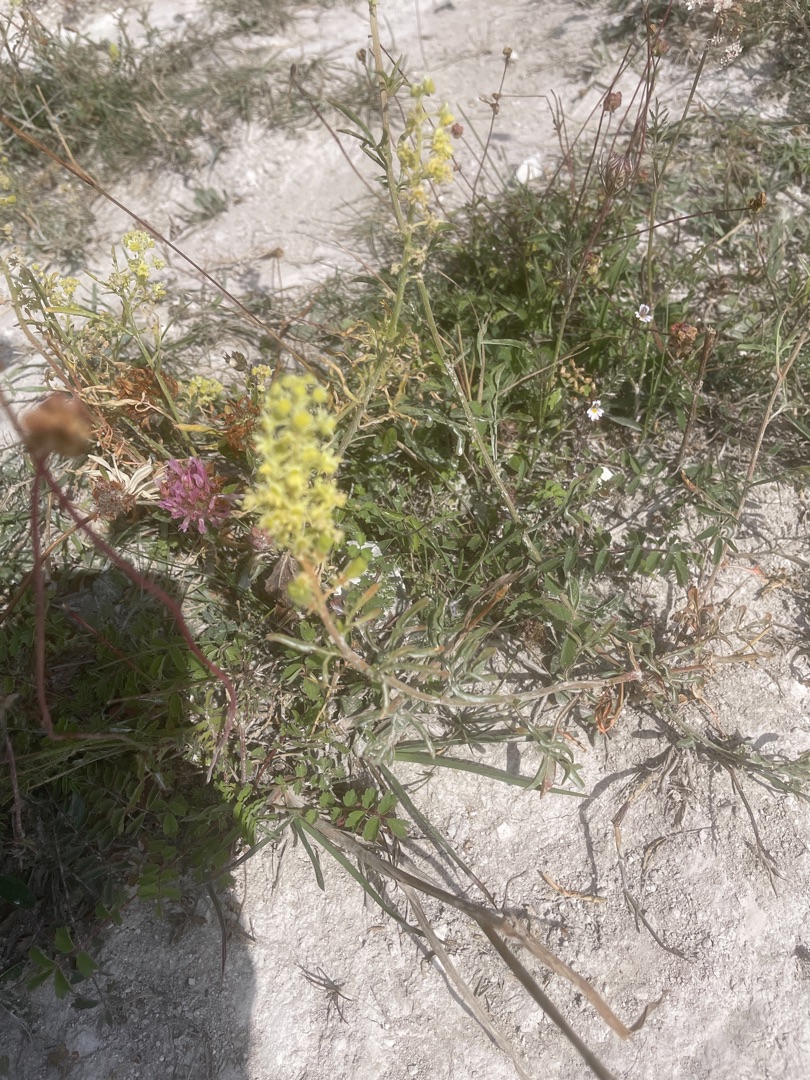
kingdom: Plantae
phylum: Tracheophyta
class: Magnoliopsida
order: Brassicales
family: Resedaceae
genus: Reseda
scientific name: Reseda lutea
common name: Gul reseda
